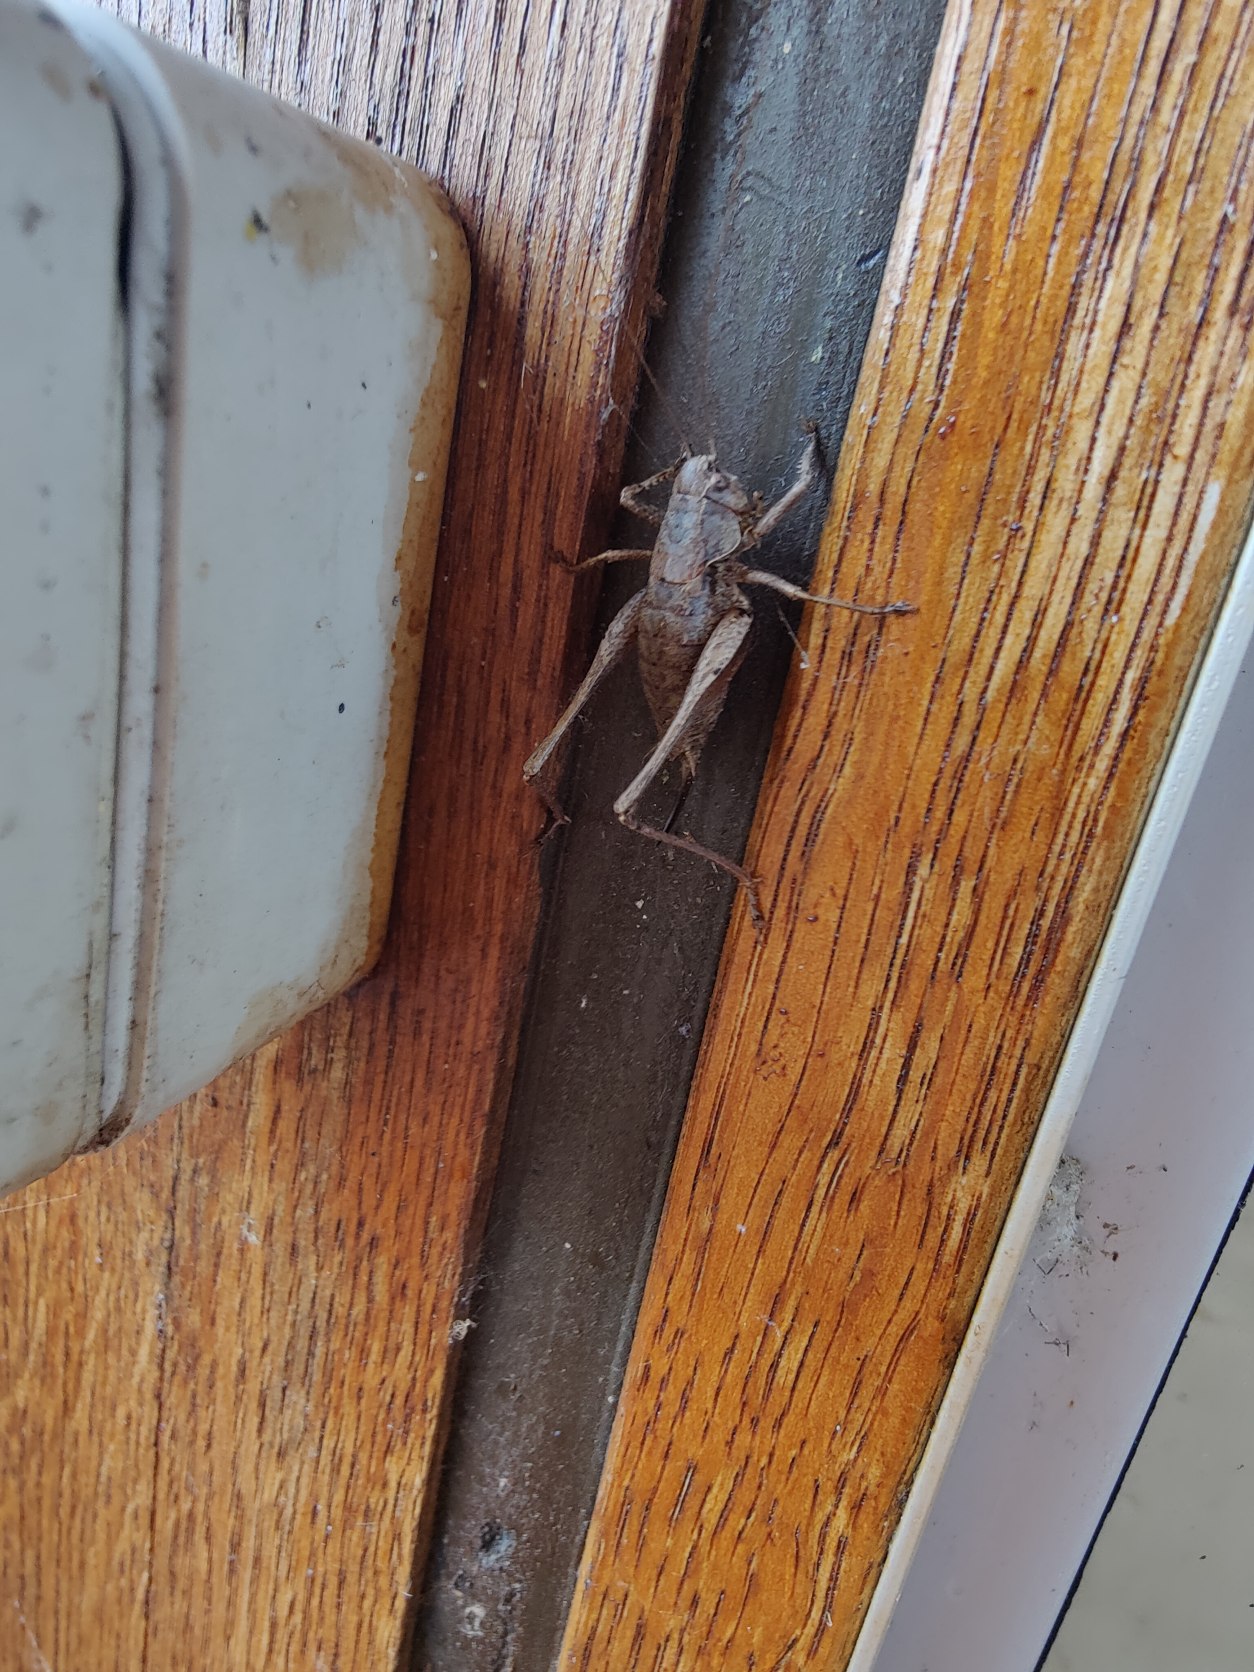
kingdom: Animalia
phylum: Arthropoda
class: Insecta
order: Orthoptera
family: Tettigoniidae
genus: Pholidoptera
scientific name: Pholidoptera griseoaptera
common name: Buskgræshoppe
